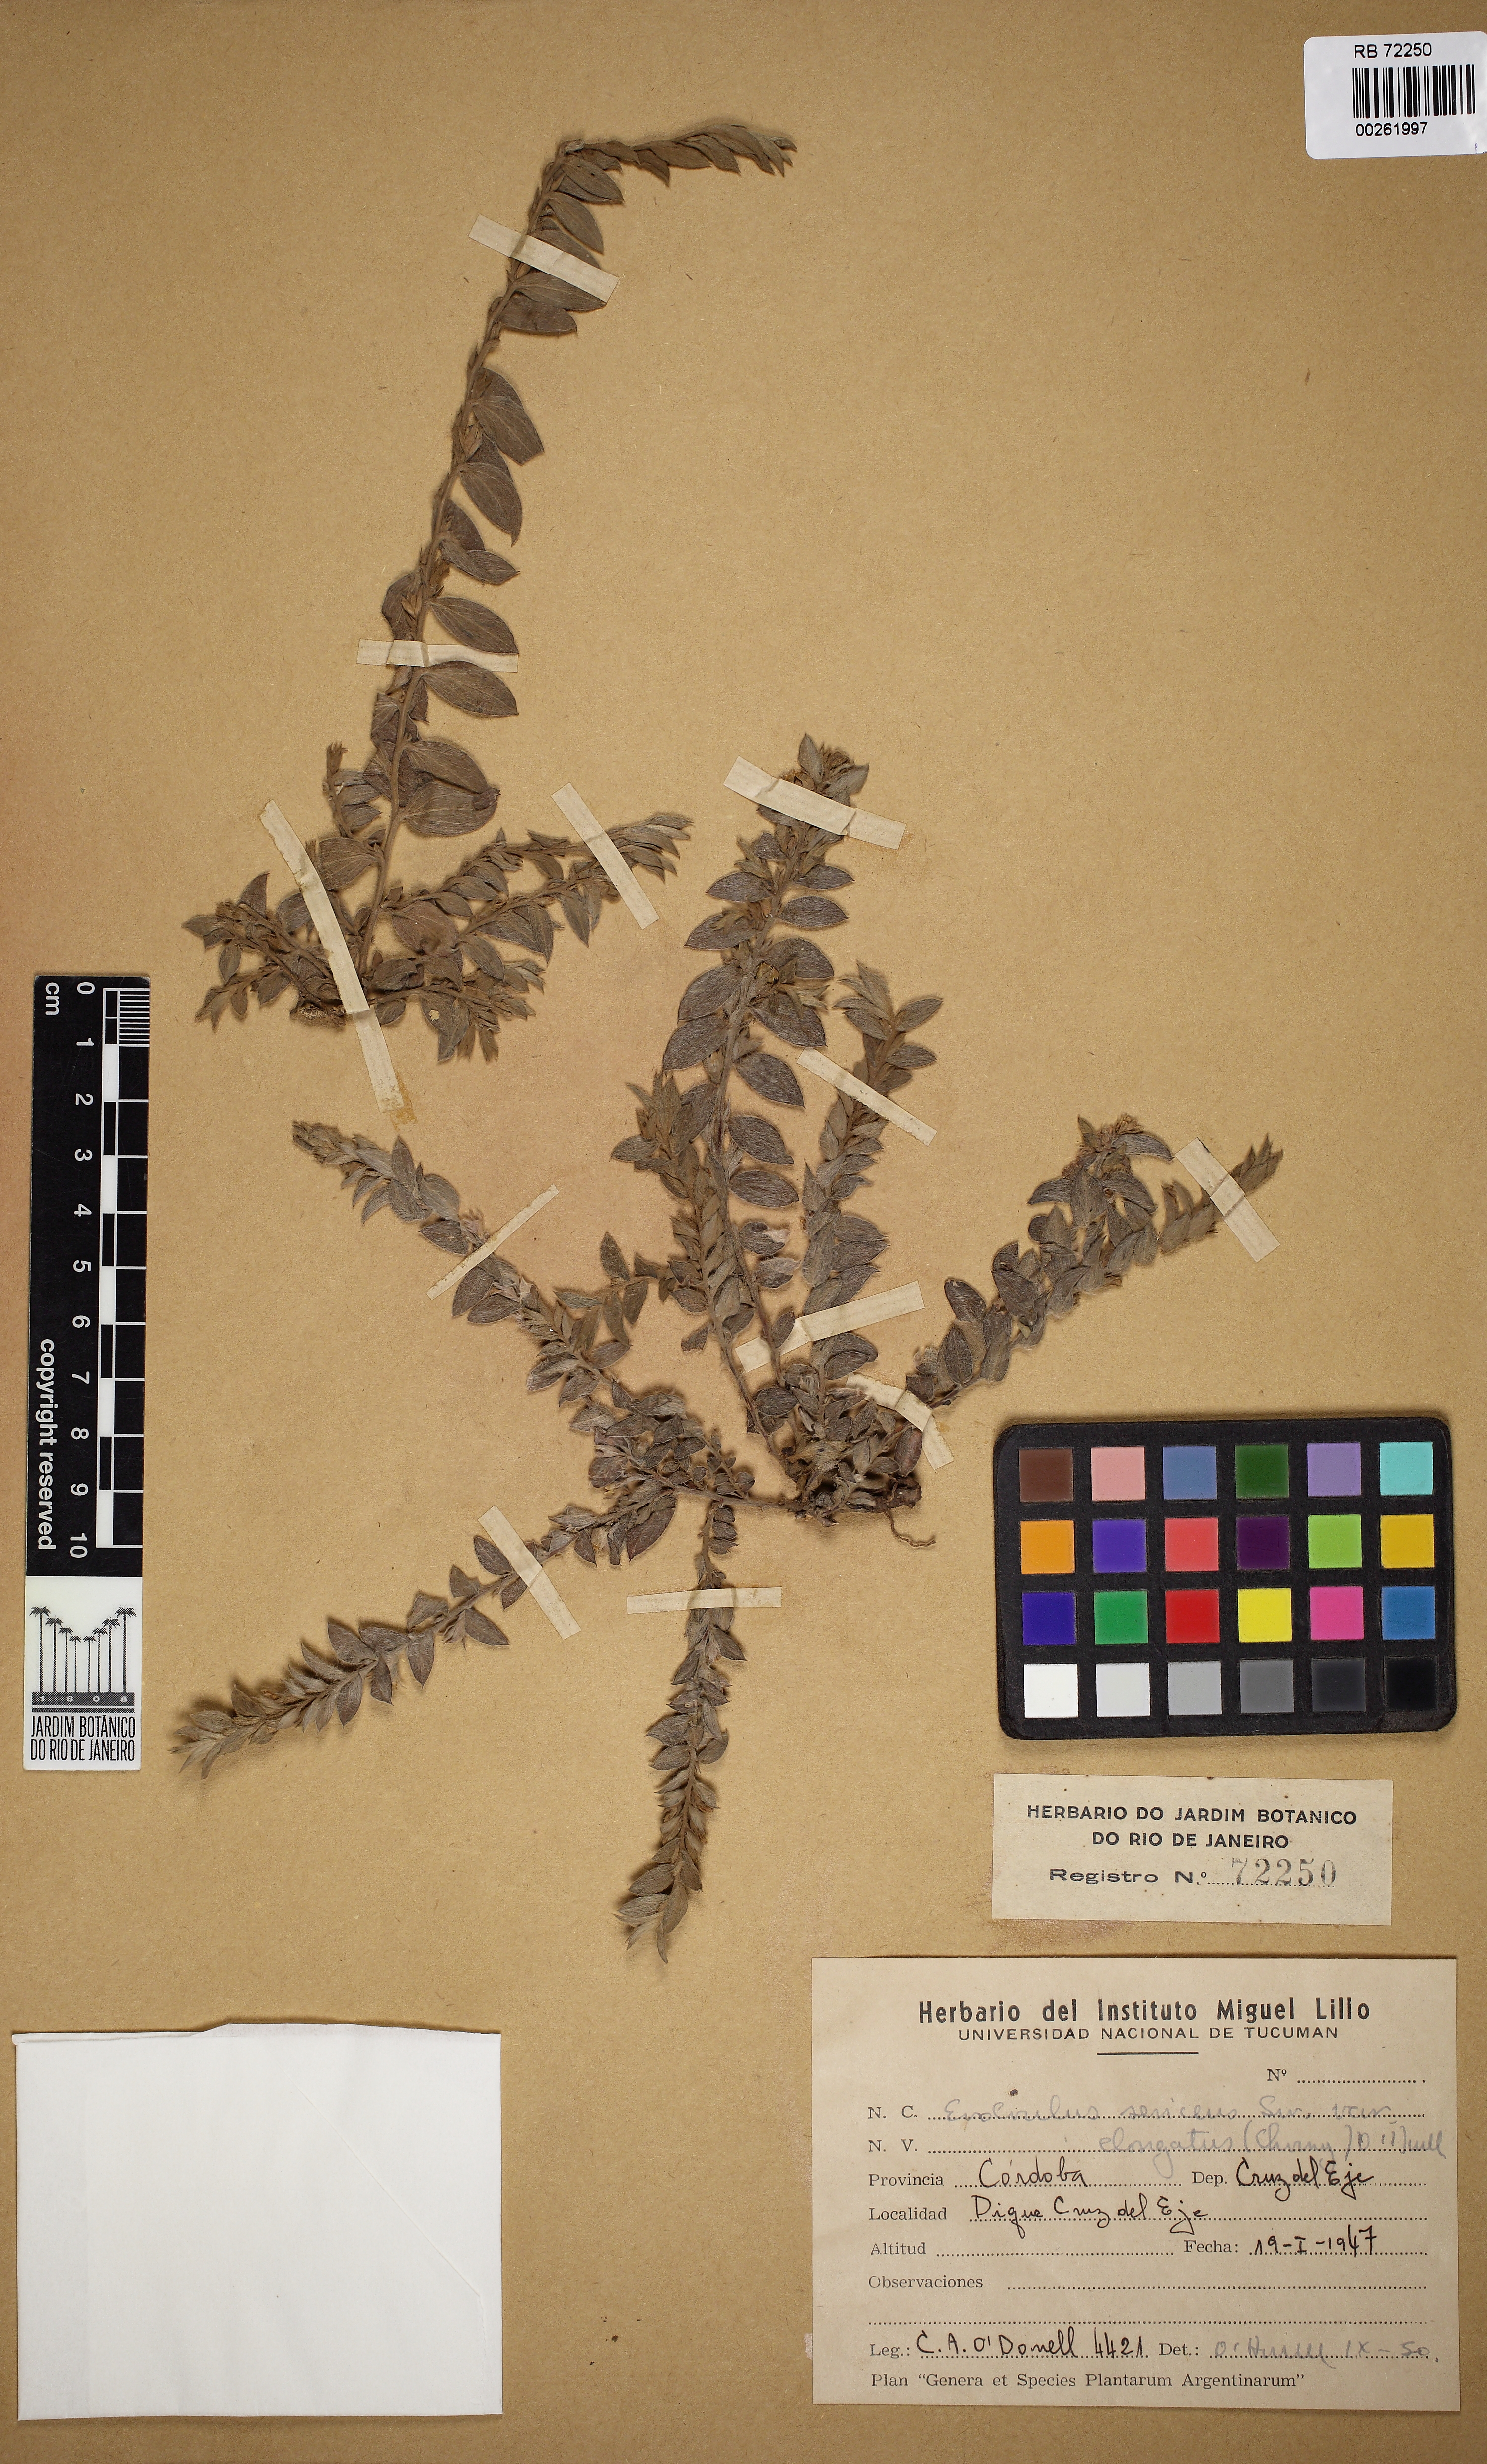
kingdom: Plantae
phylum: Tracheophyta
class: Magnoliopsida
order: Solanales
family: Convolvulaceae
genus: Evolvulus
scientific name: Evolvulus sericeus
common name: Blue dots
